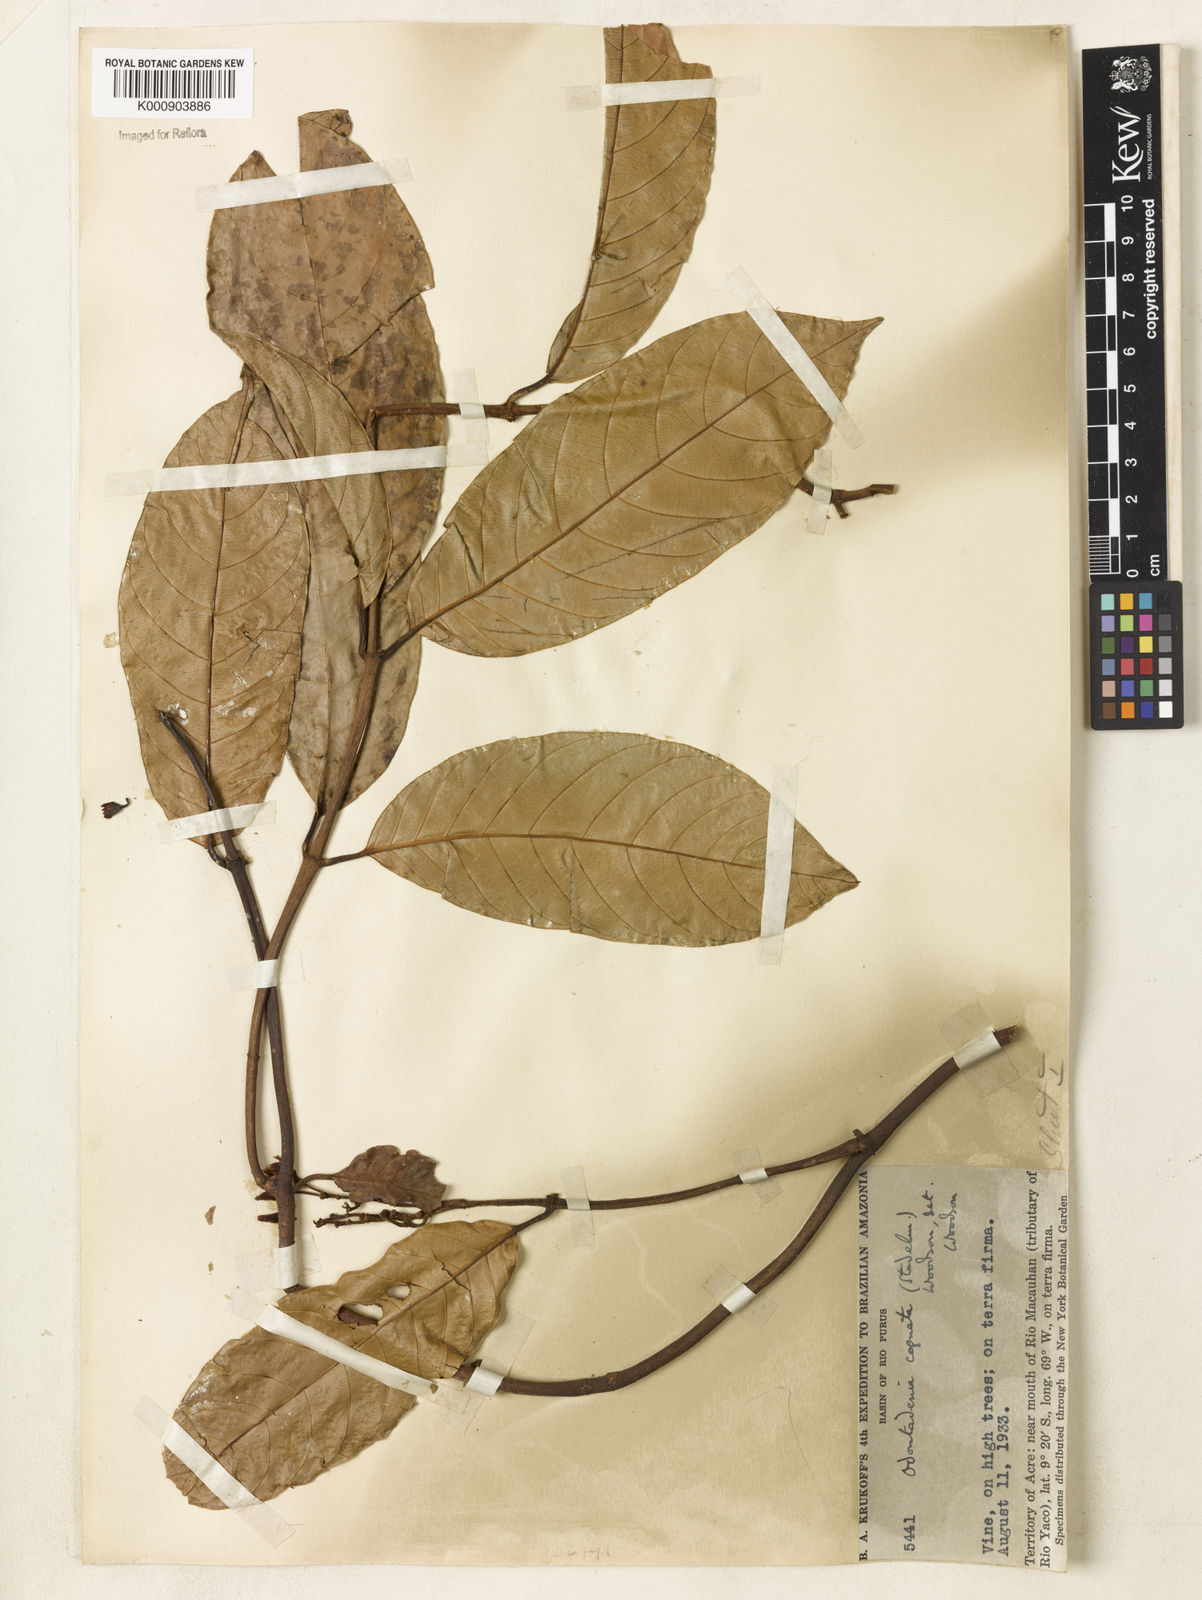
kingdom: Plantae
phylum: Tracheophyta
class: Magnoliopsida
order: Gentianales
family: Apocynaceae
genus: Odontadenia
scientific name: Odontadenia verrucosa
